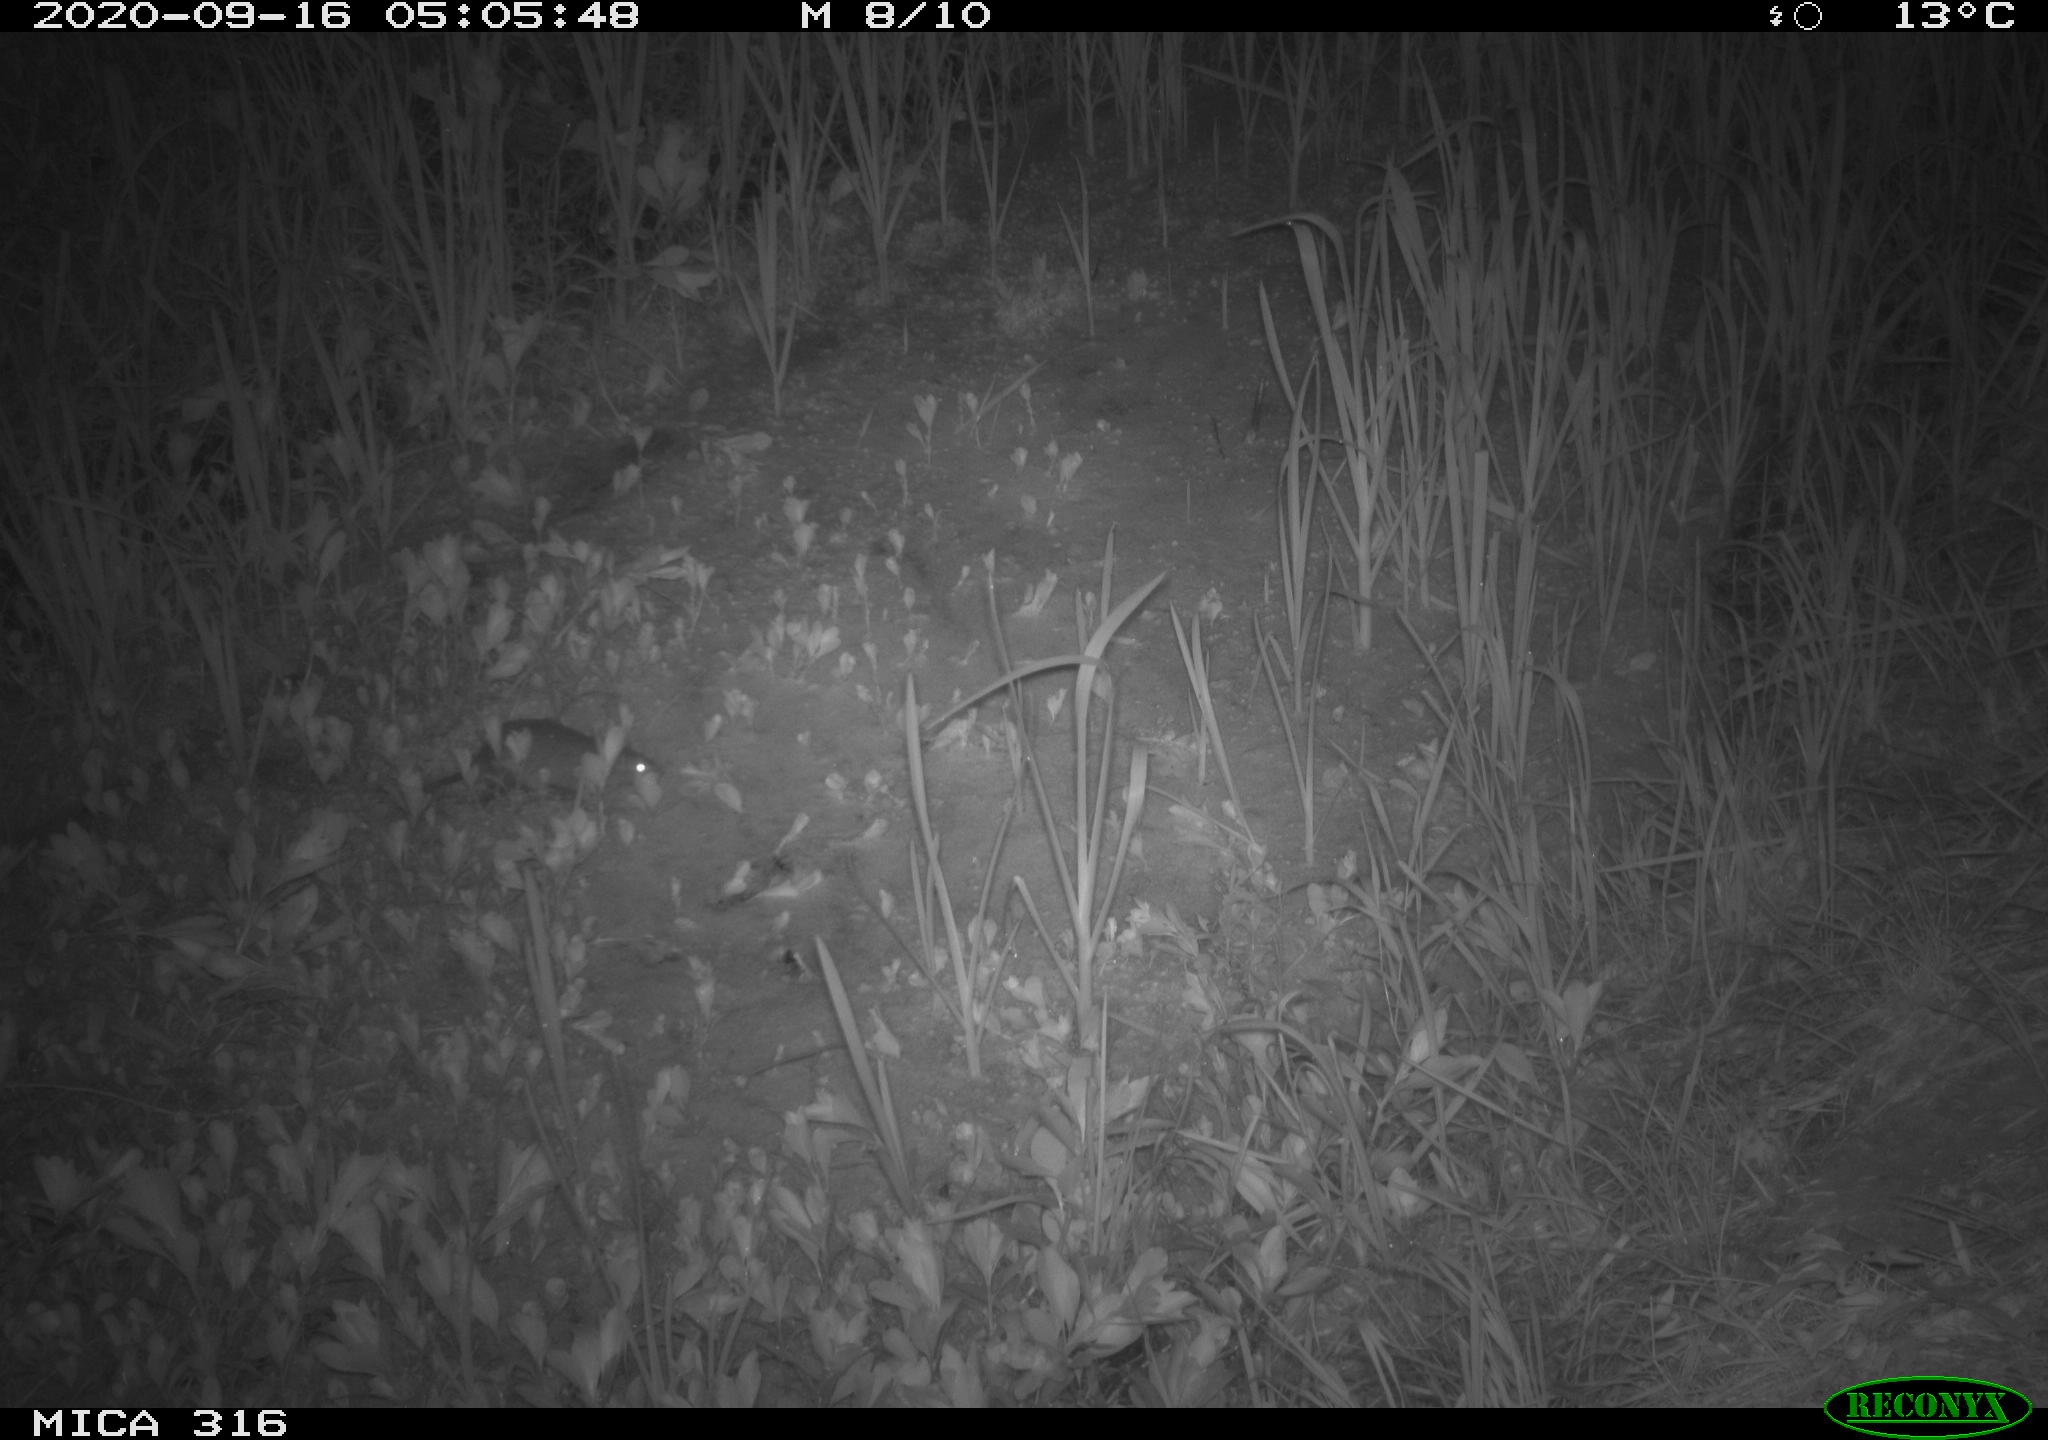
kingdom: Animalia
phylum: Chordata
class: Mammalia
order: Rodentia
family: Muridae
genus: Rattus
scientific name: Rattus norvegicus
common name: Brown rat
